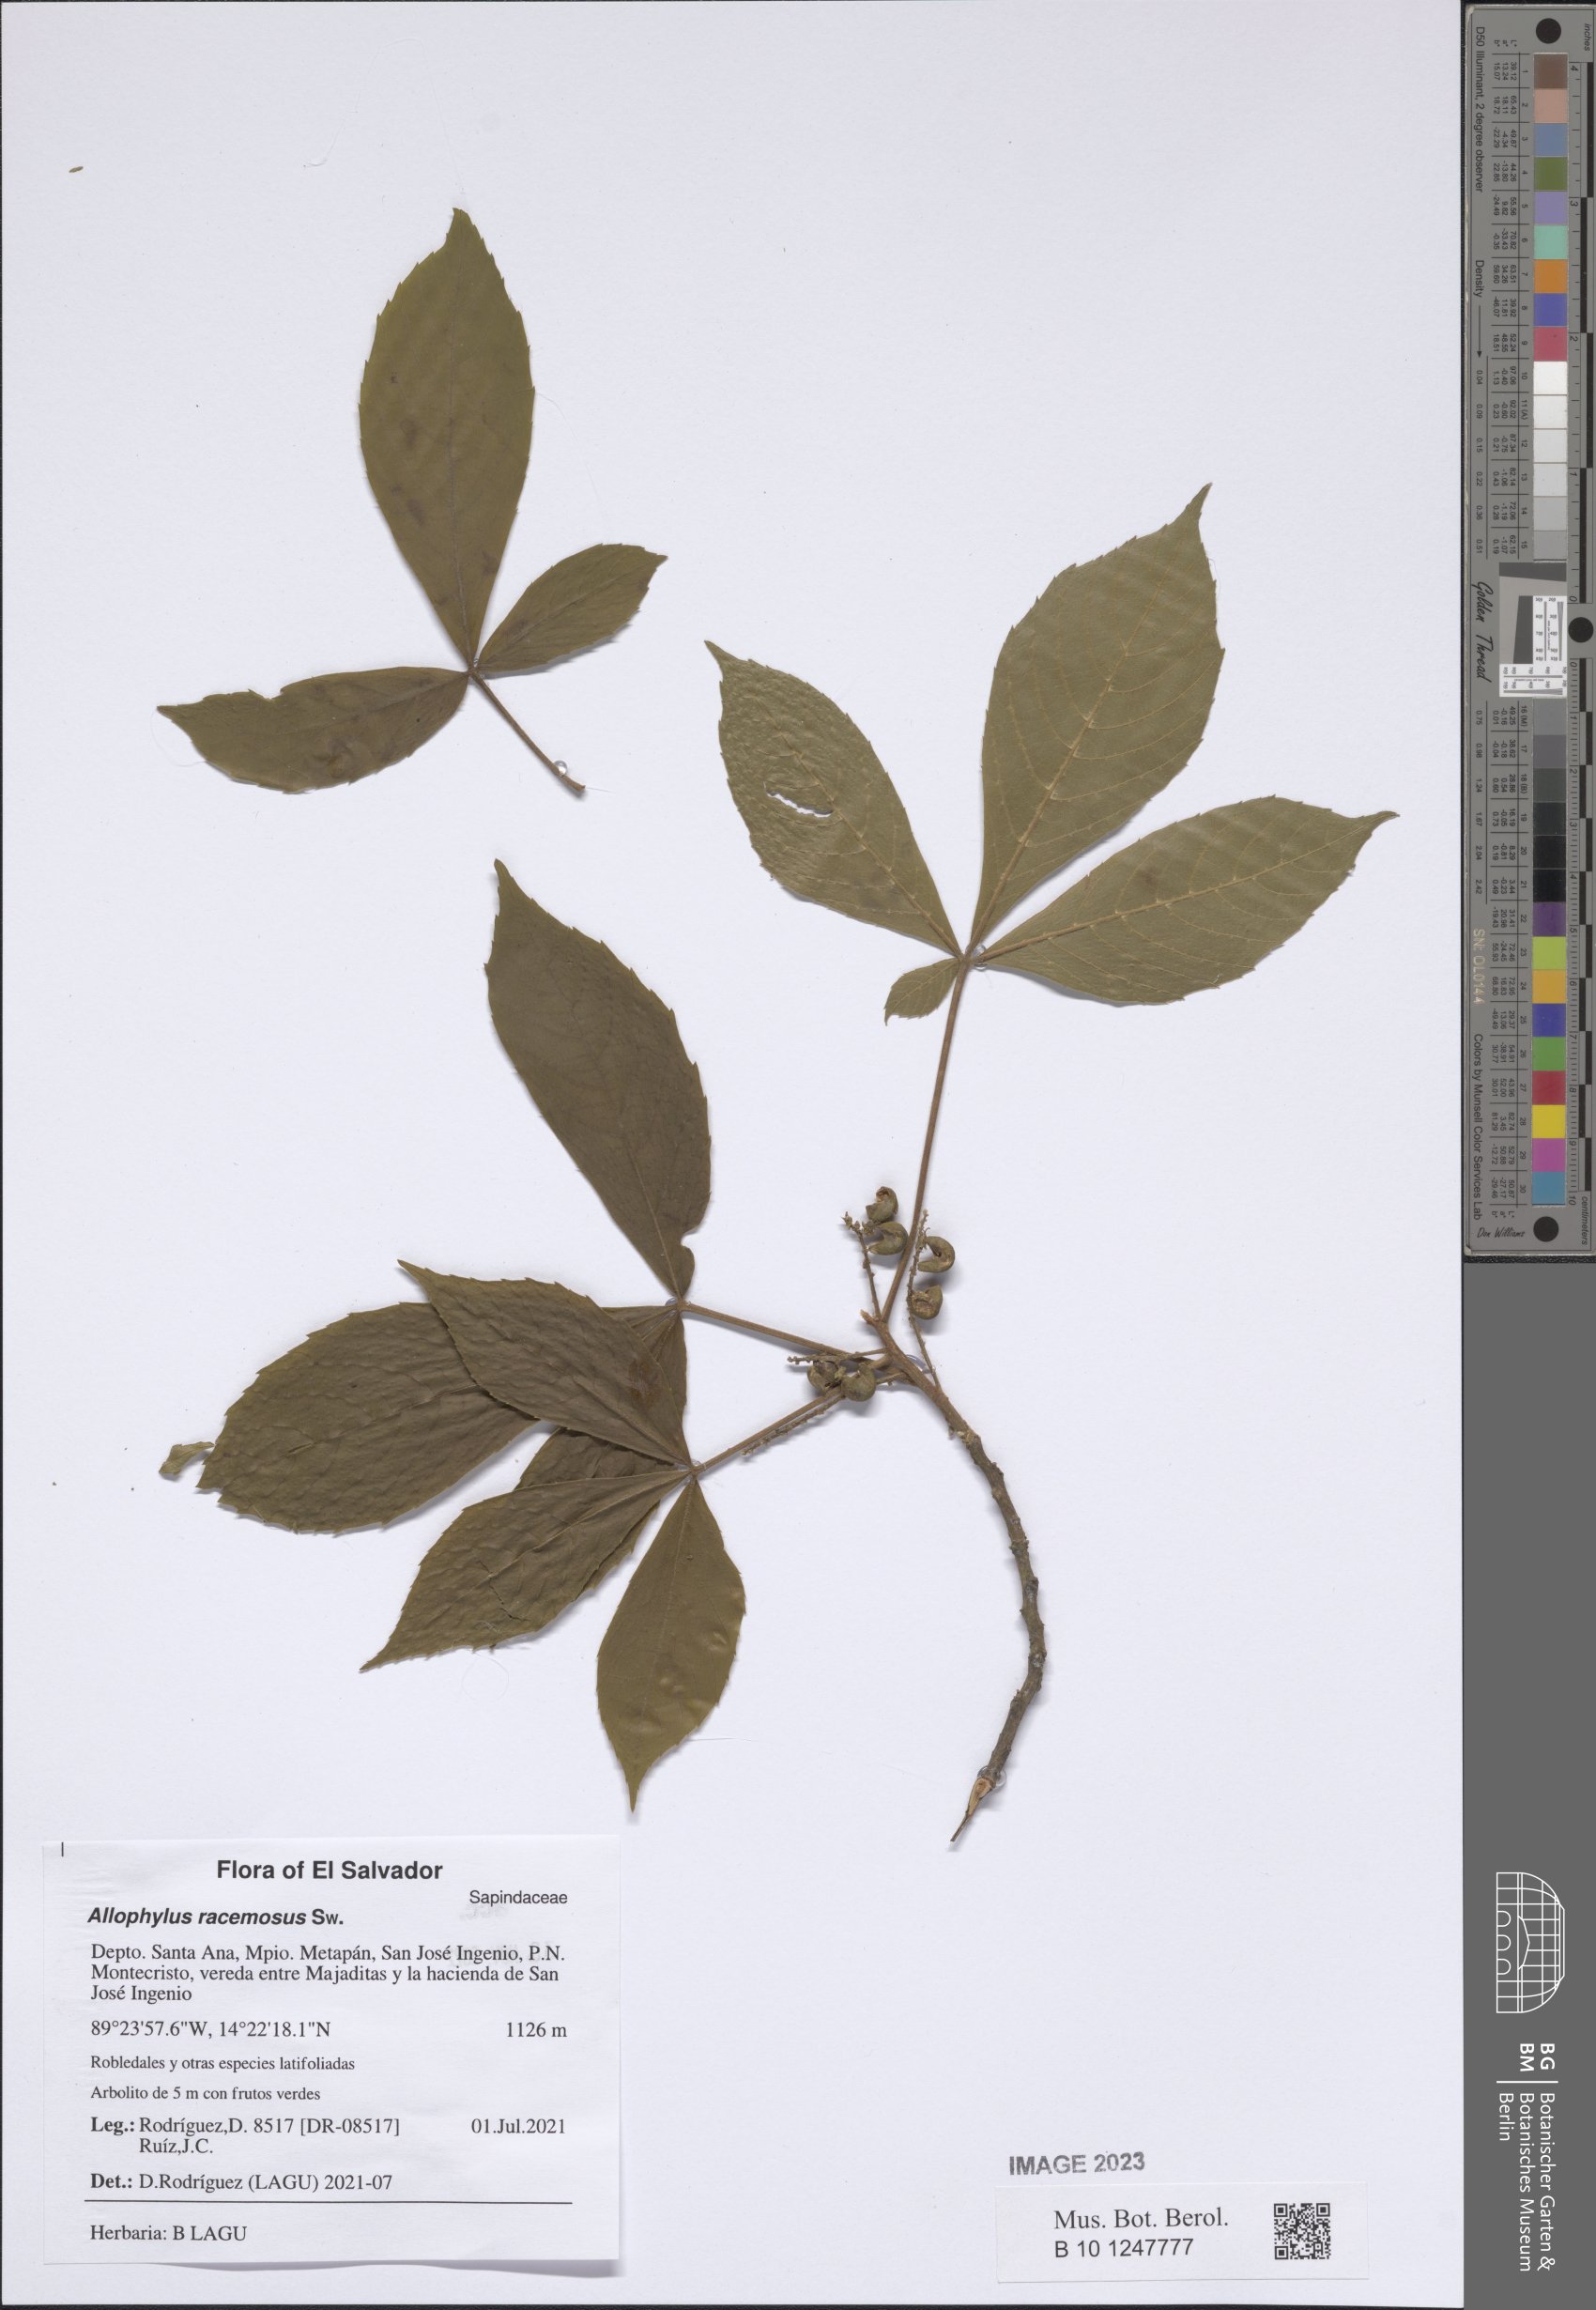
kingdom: Plantae
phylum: Tracheophyta
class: Magnoliopsida
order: Sapindales
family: Sapindaceae
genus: Allophylus
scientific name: Allophylus racemosus
